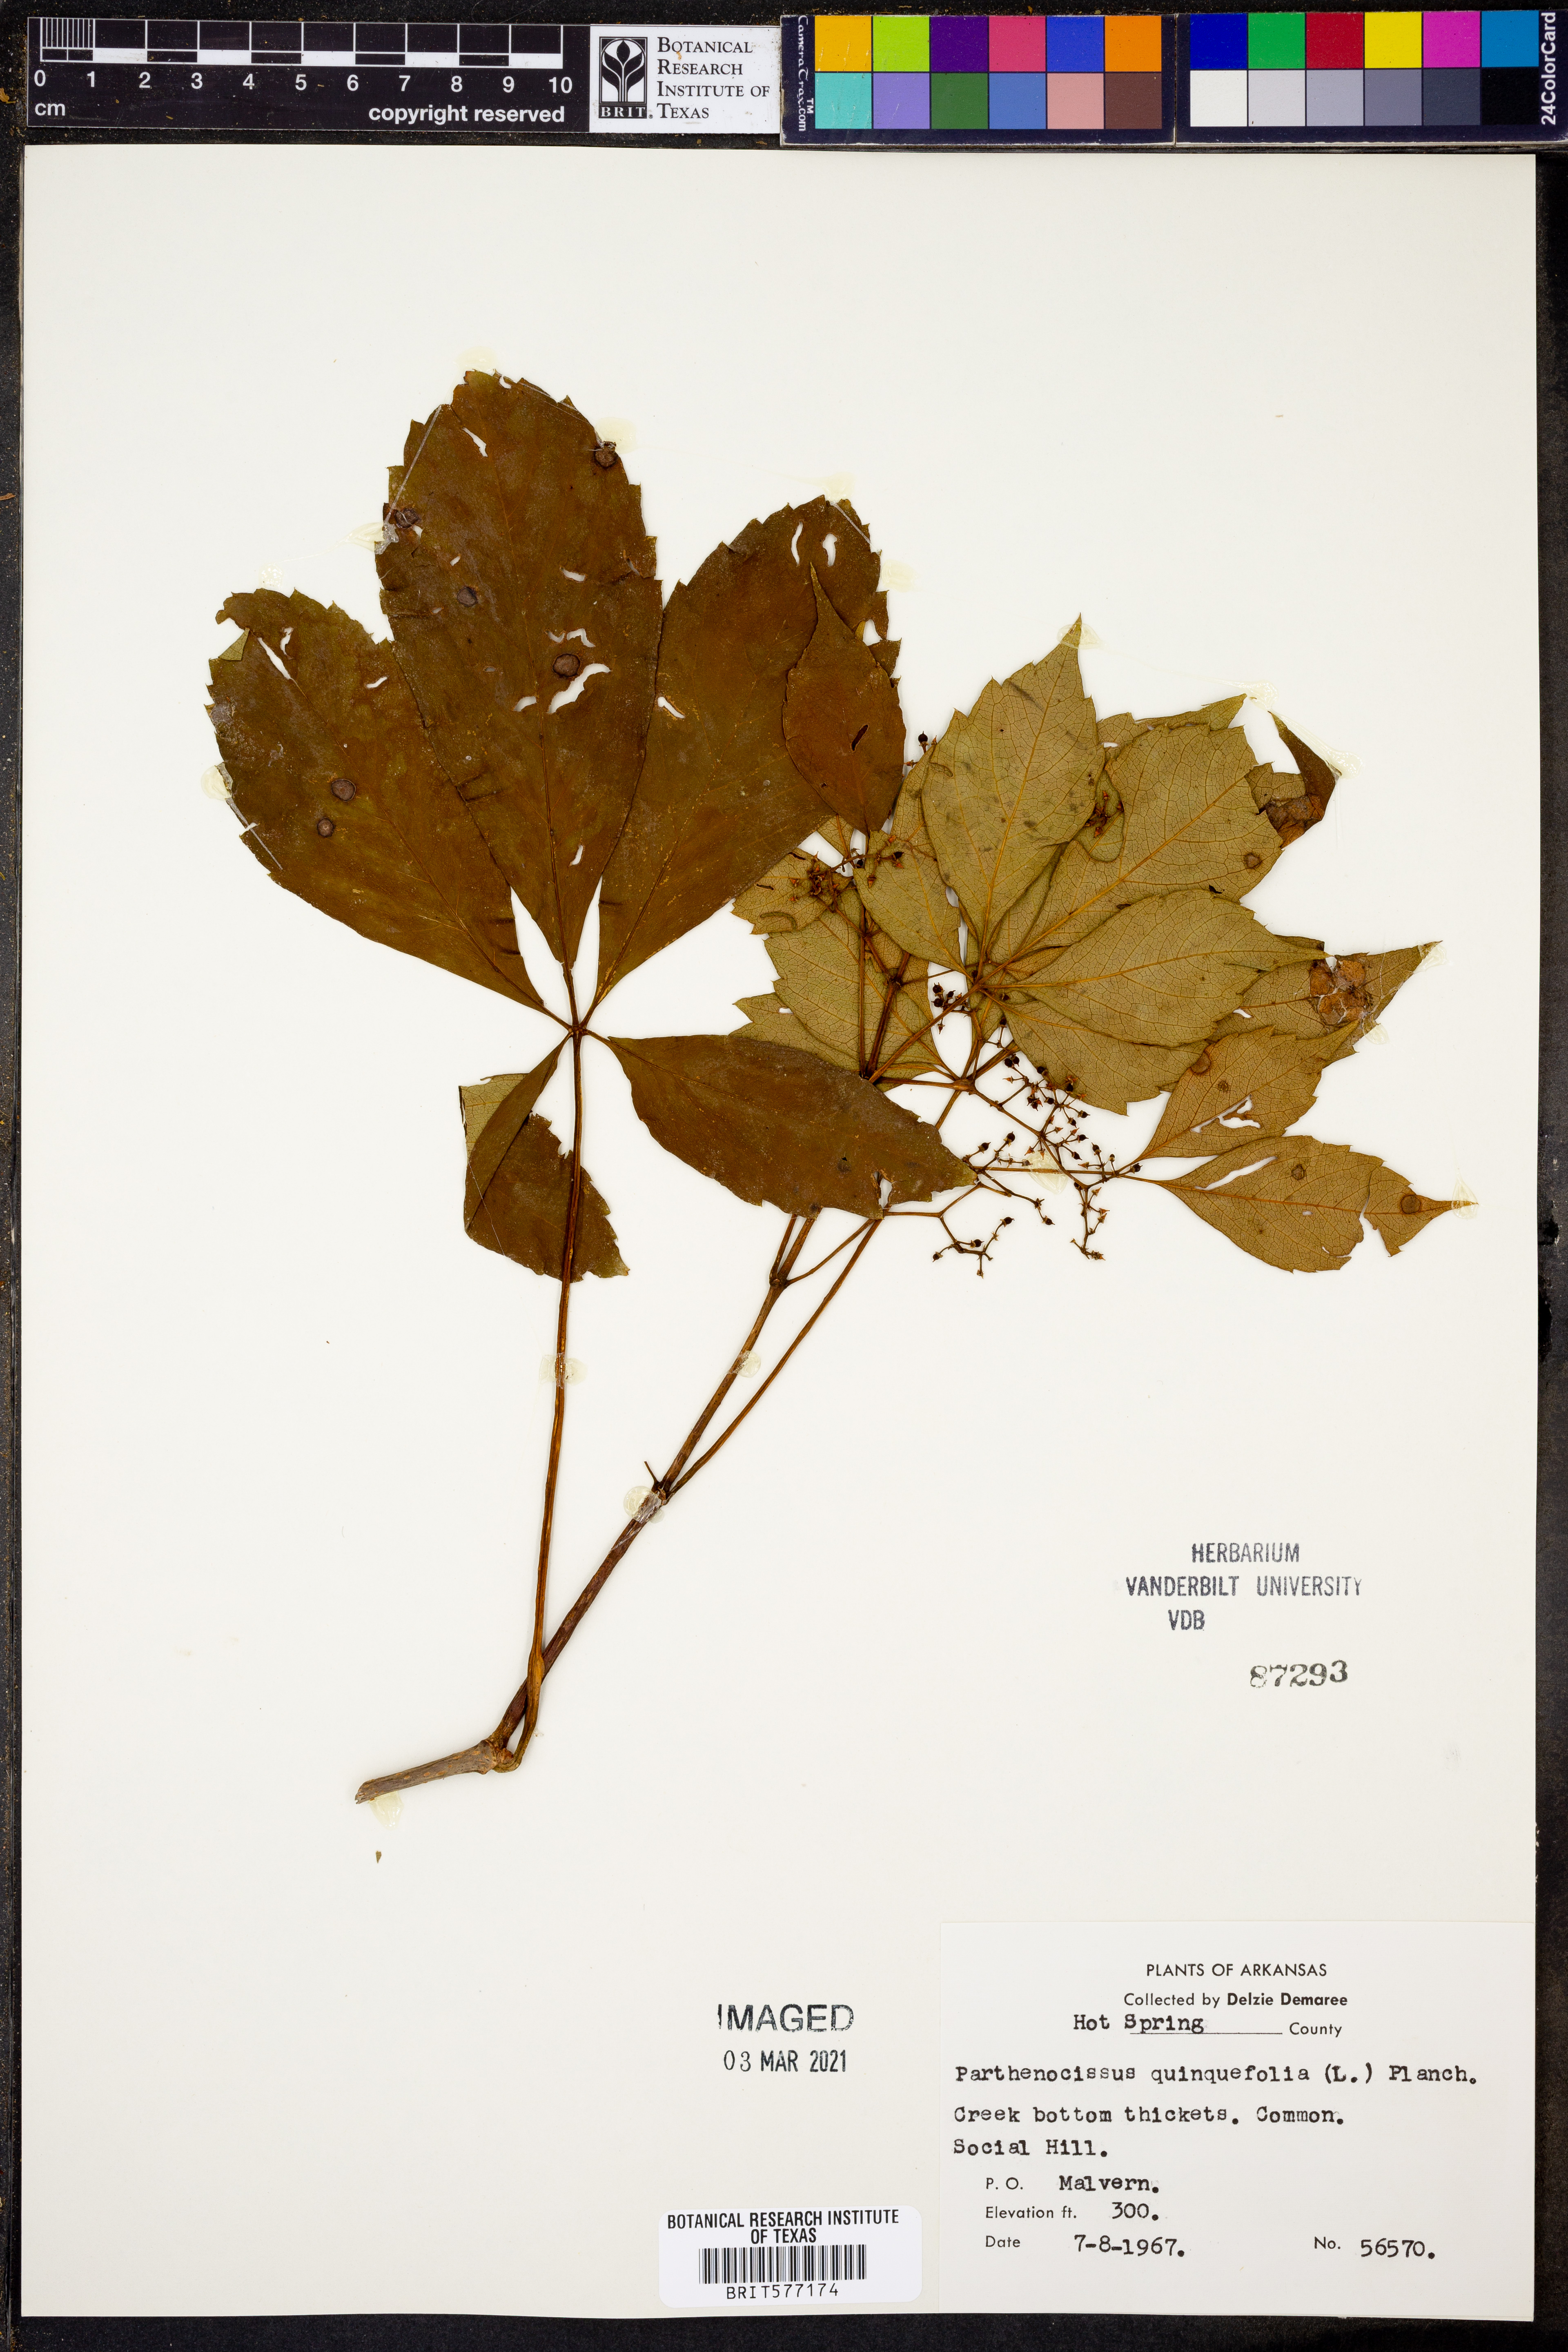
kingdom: Plantae
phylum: Tracheophyta
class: Magnoliopsida
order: Vitales
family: Vitaceae
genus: Parthenocissus
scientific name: Parthenocissus quinquefolia
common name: Virginia-creeper
